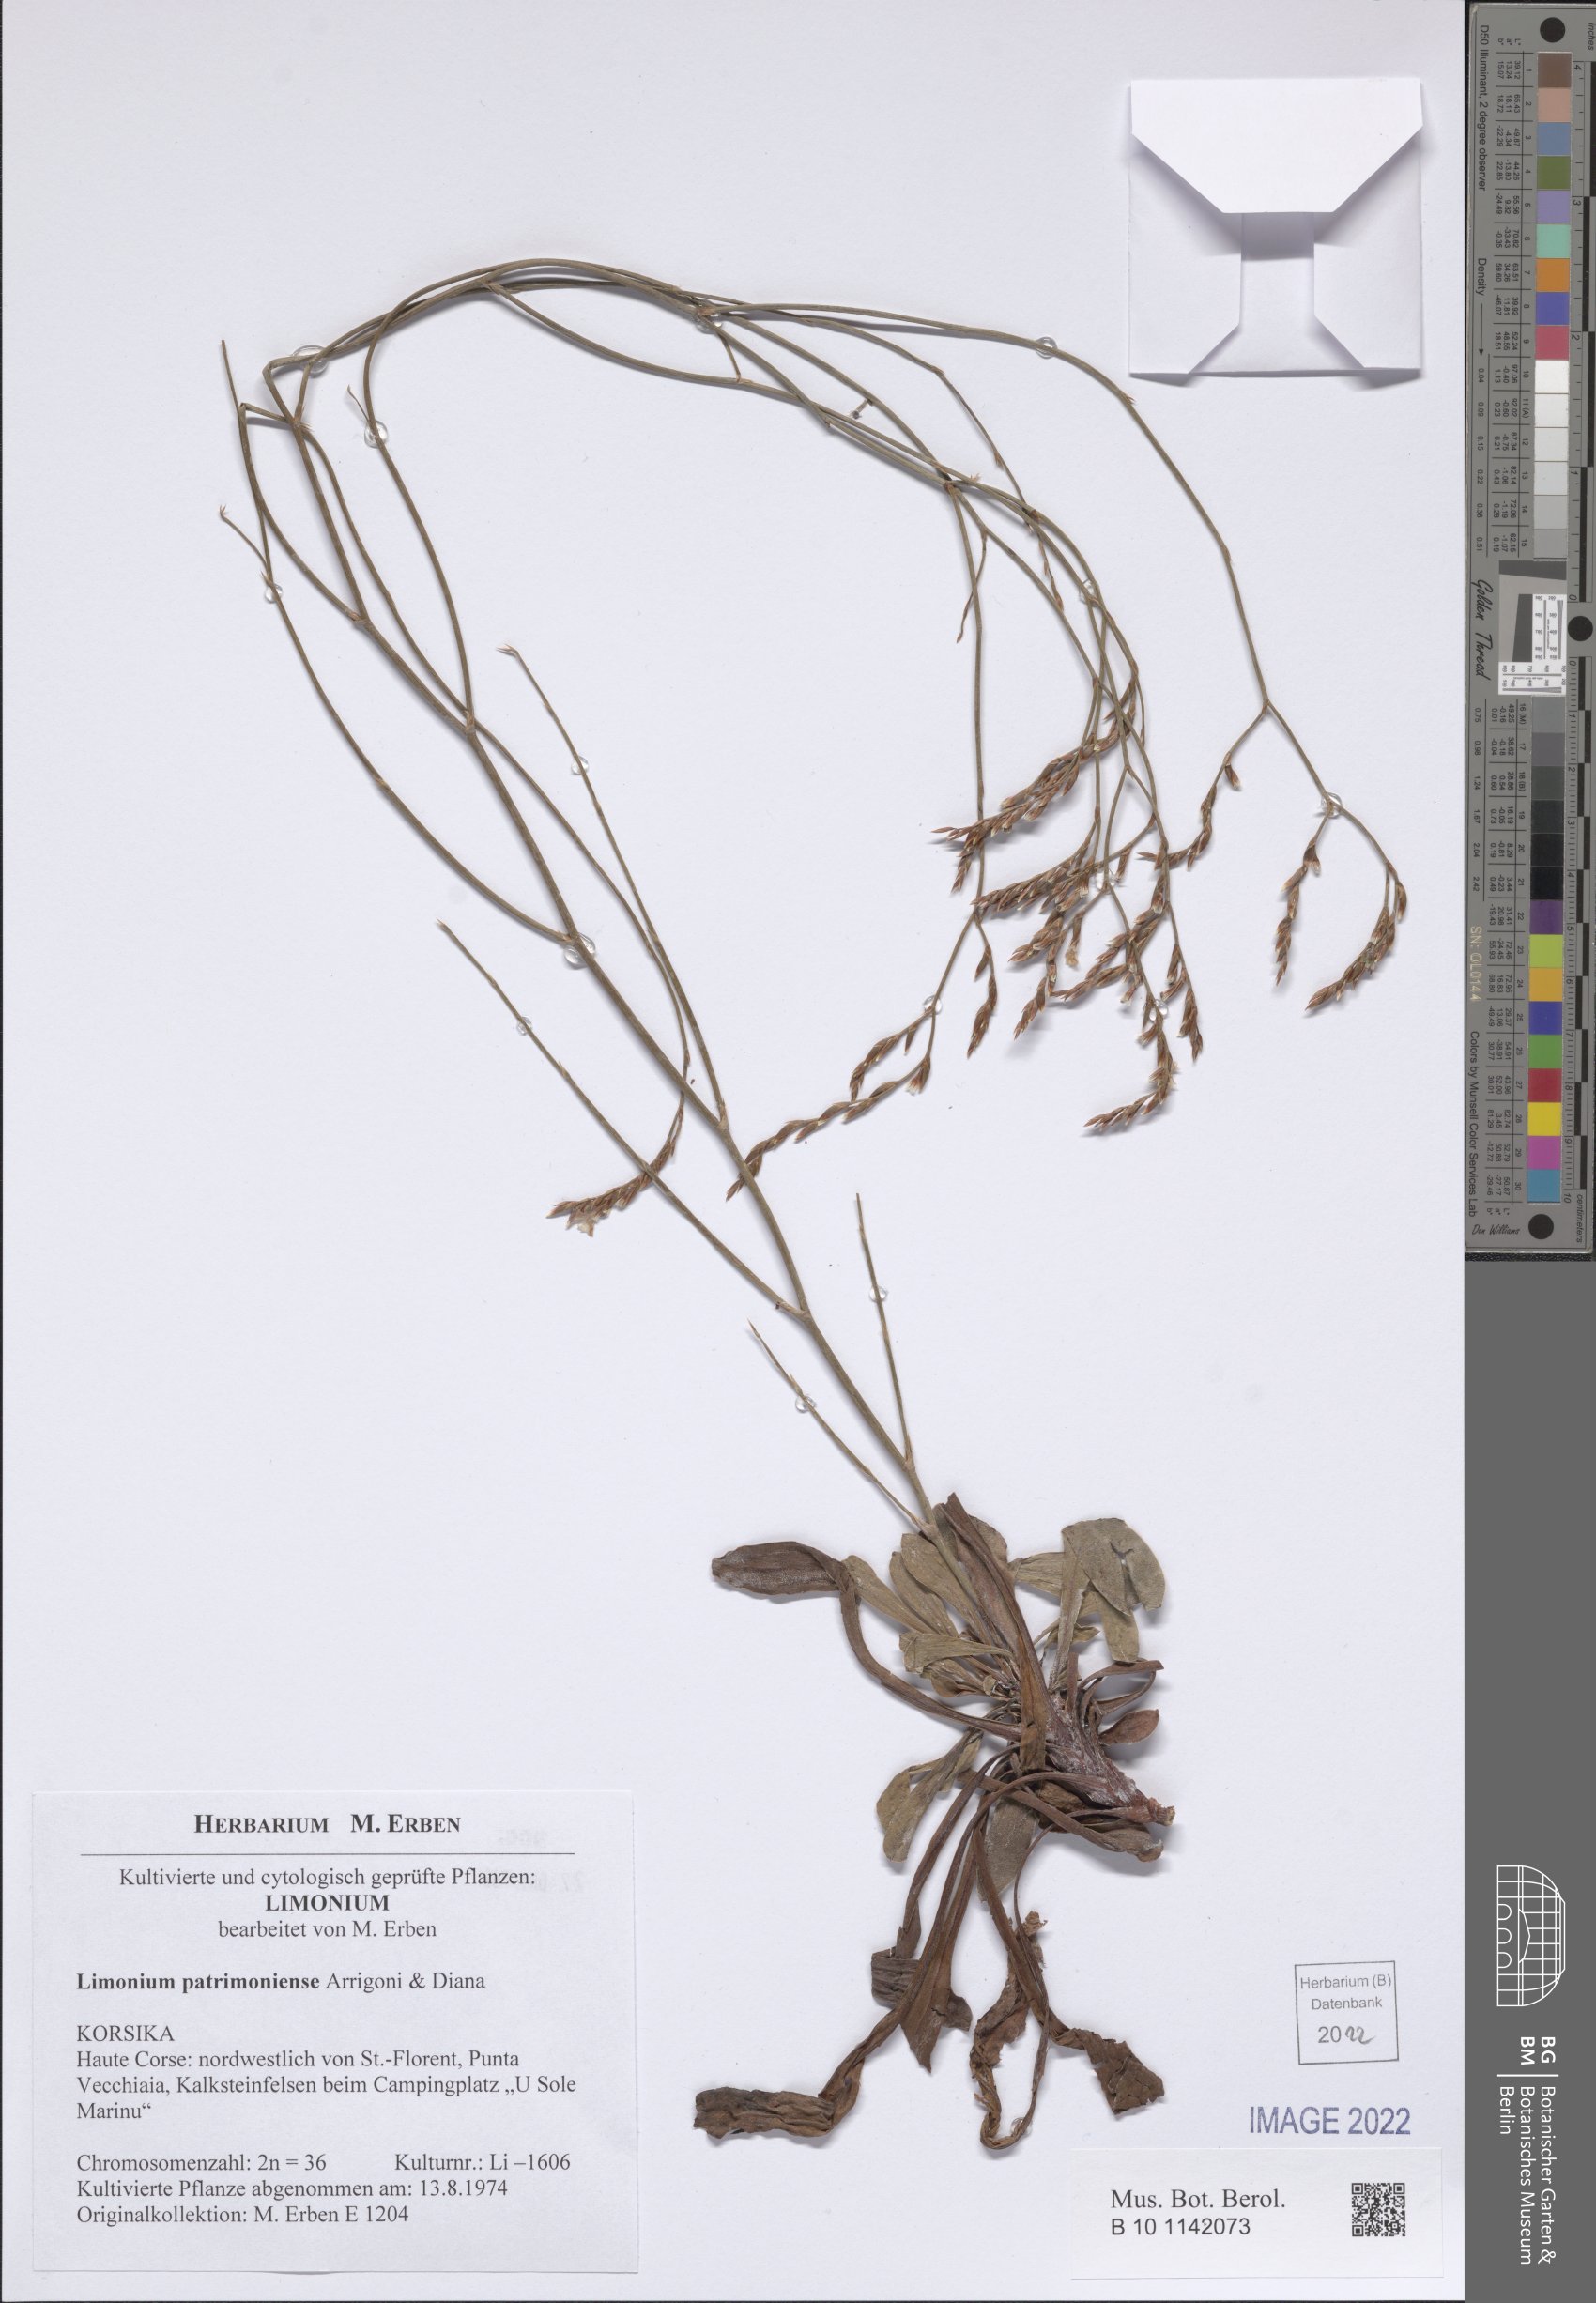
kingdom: Plantae
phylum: Tracheophyta
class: Magnoliopsida
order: Caryophyllales
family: Plumbaginaceae
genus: Limonium
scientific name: Limonium patrimoniense
